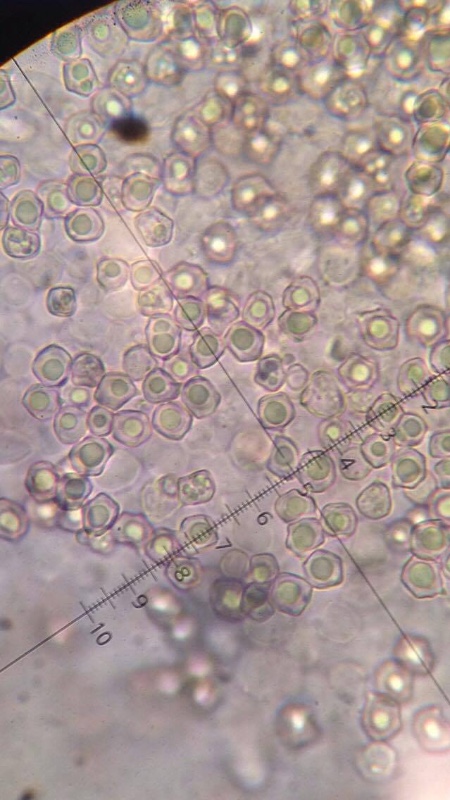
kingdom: Fungi
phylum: Basidiomycota
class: Agaricomycetes
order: Agaricales
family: Entolomataceae
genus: Entoloma
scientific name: Entoloma
